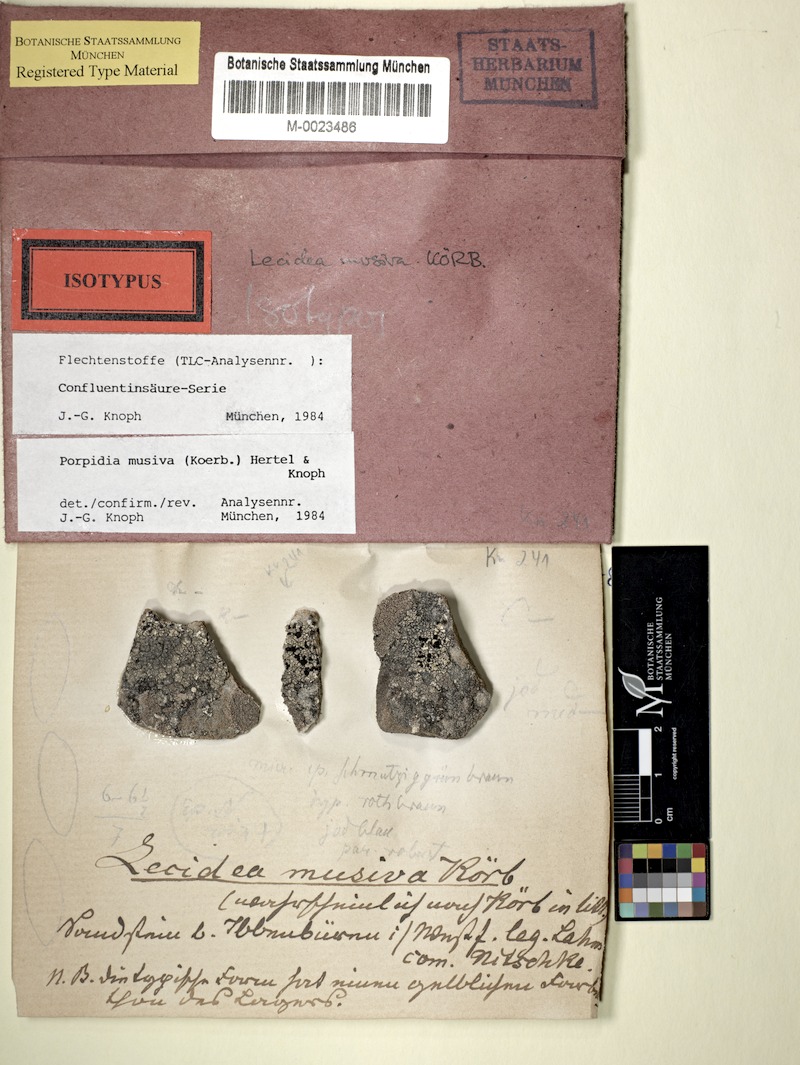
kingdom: Fungi
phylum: Ascomycota
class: Lecanoromycetes
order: Lecideales
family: Lecideaceae
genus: Porpidia
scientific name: Porpidia cinereoatra
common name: Dark gray boulder lichen
